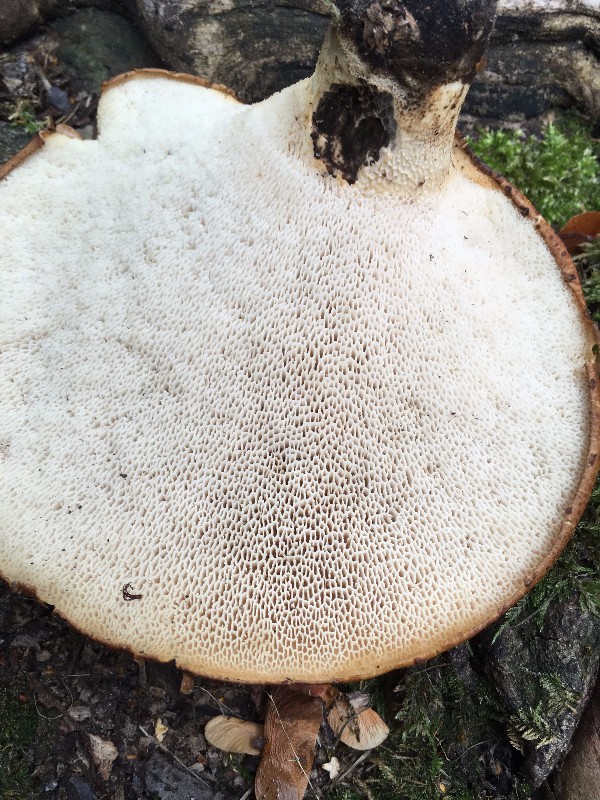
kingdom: Fungi
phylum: Basidiomycota
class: Agaricomycetes
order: Polyporales
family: Polyporaceae
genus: Cerioporus
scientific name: Cerioporus squamosus
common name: skællet stilkporesvamp
